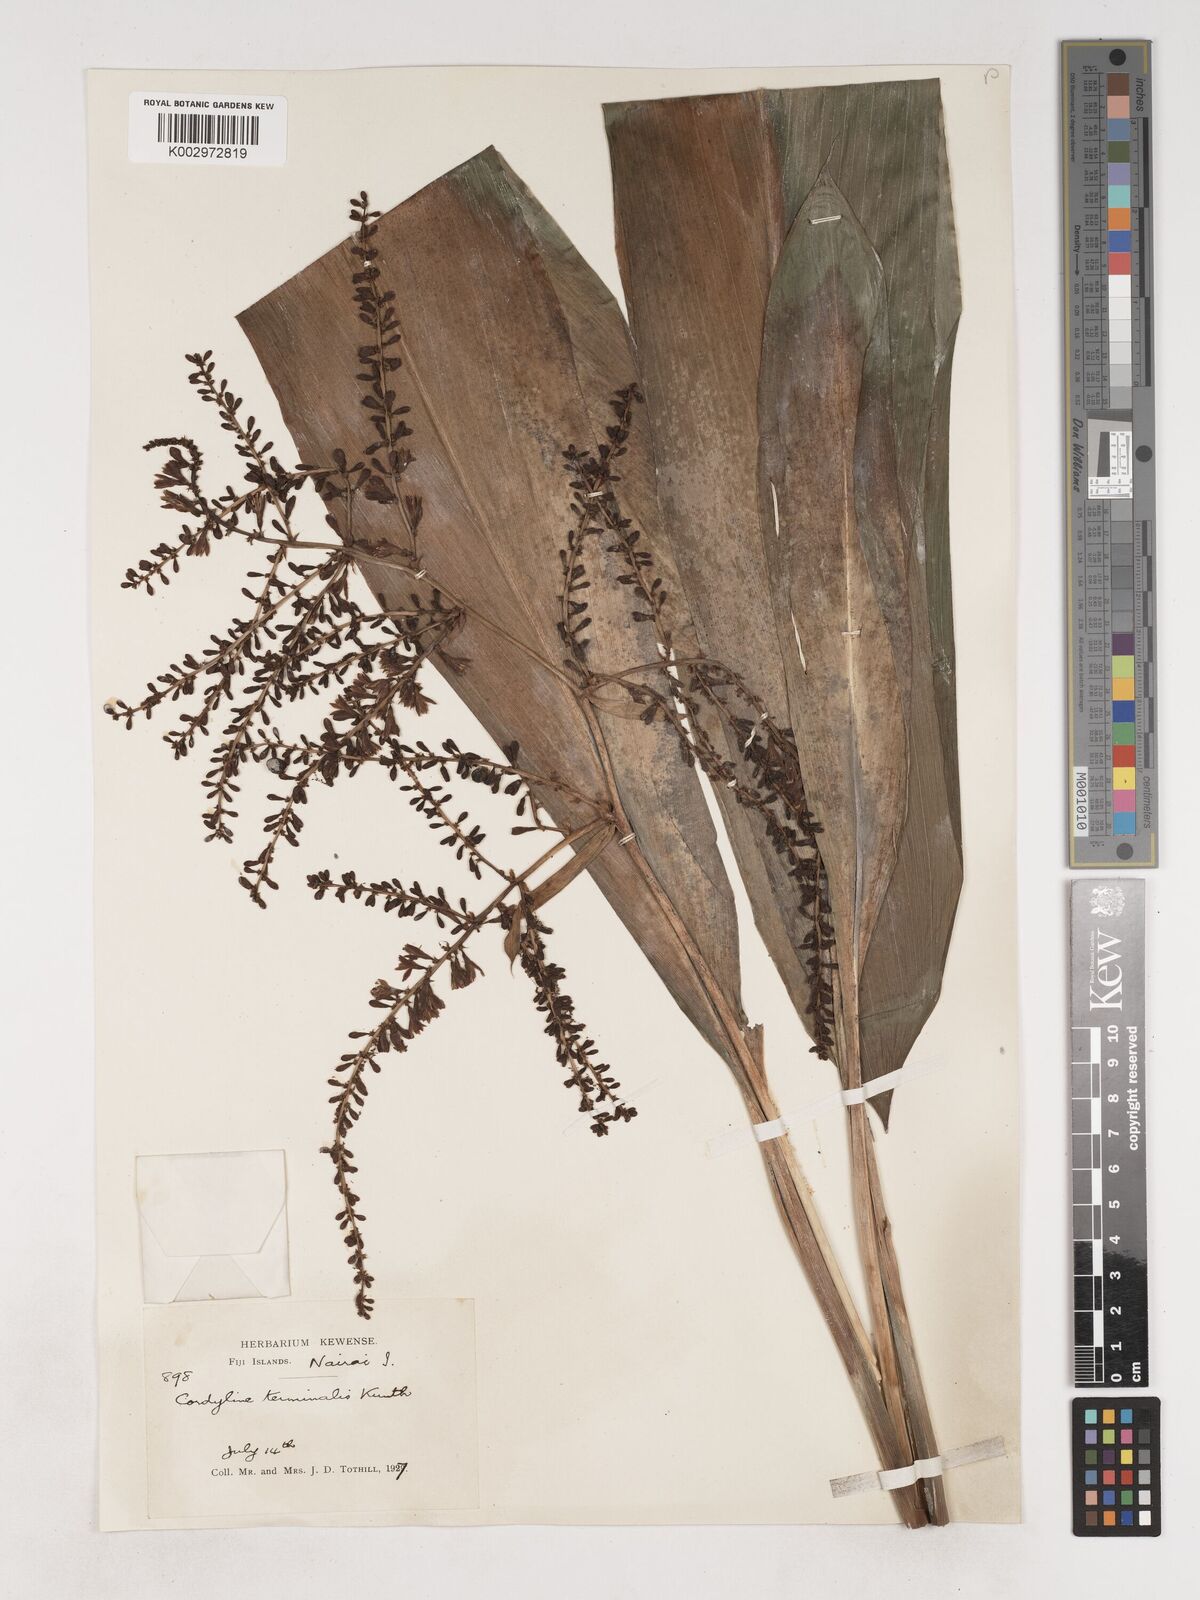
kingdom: Plantae
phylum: Tracheophyta
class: Liliopsida
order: Asparagales
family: Asparagaceae
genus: Cordyline
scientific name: Cordyline fruticosa
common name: Good-luck-plant
